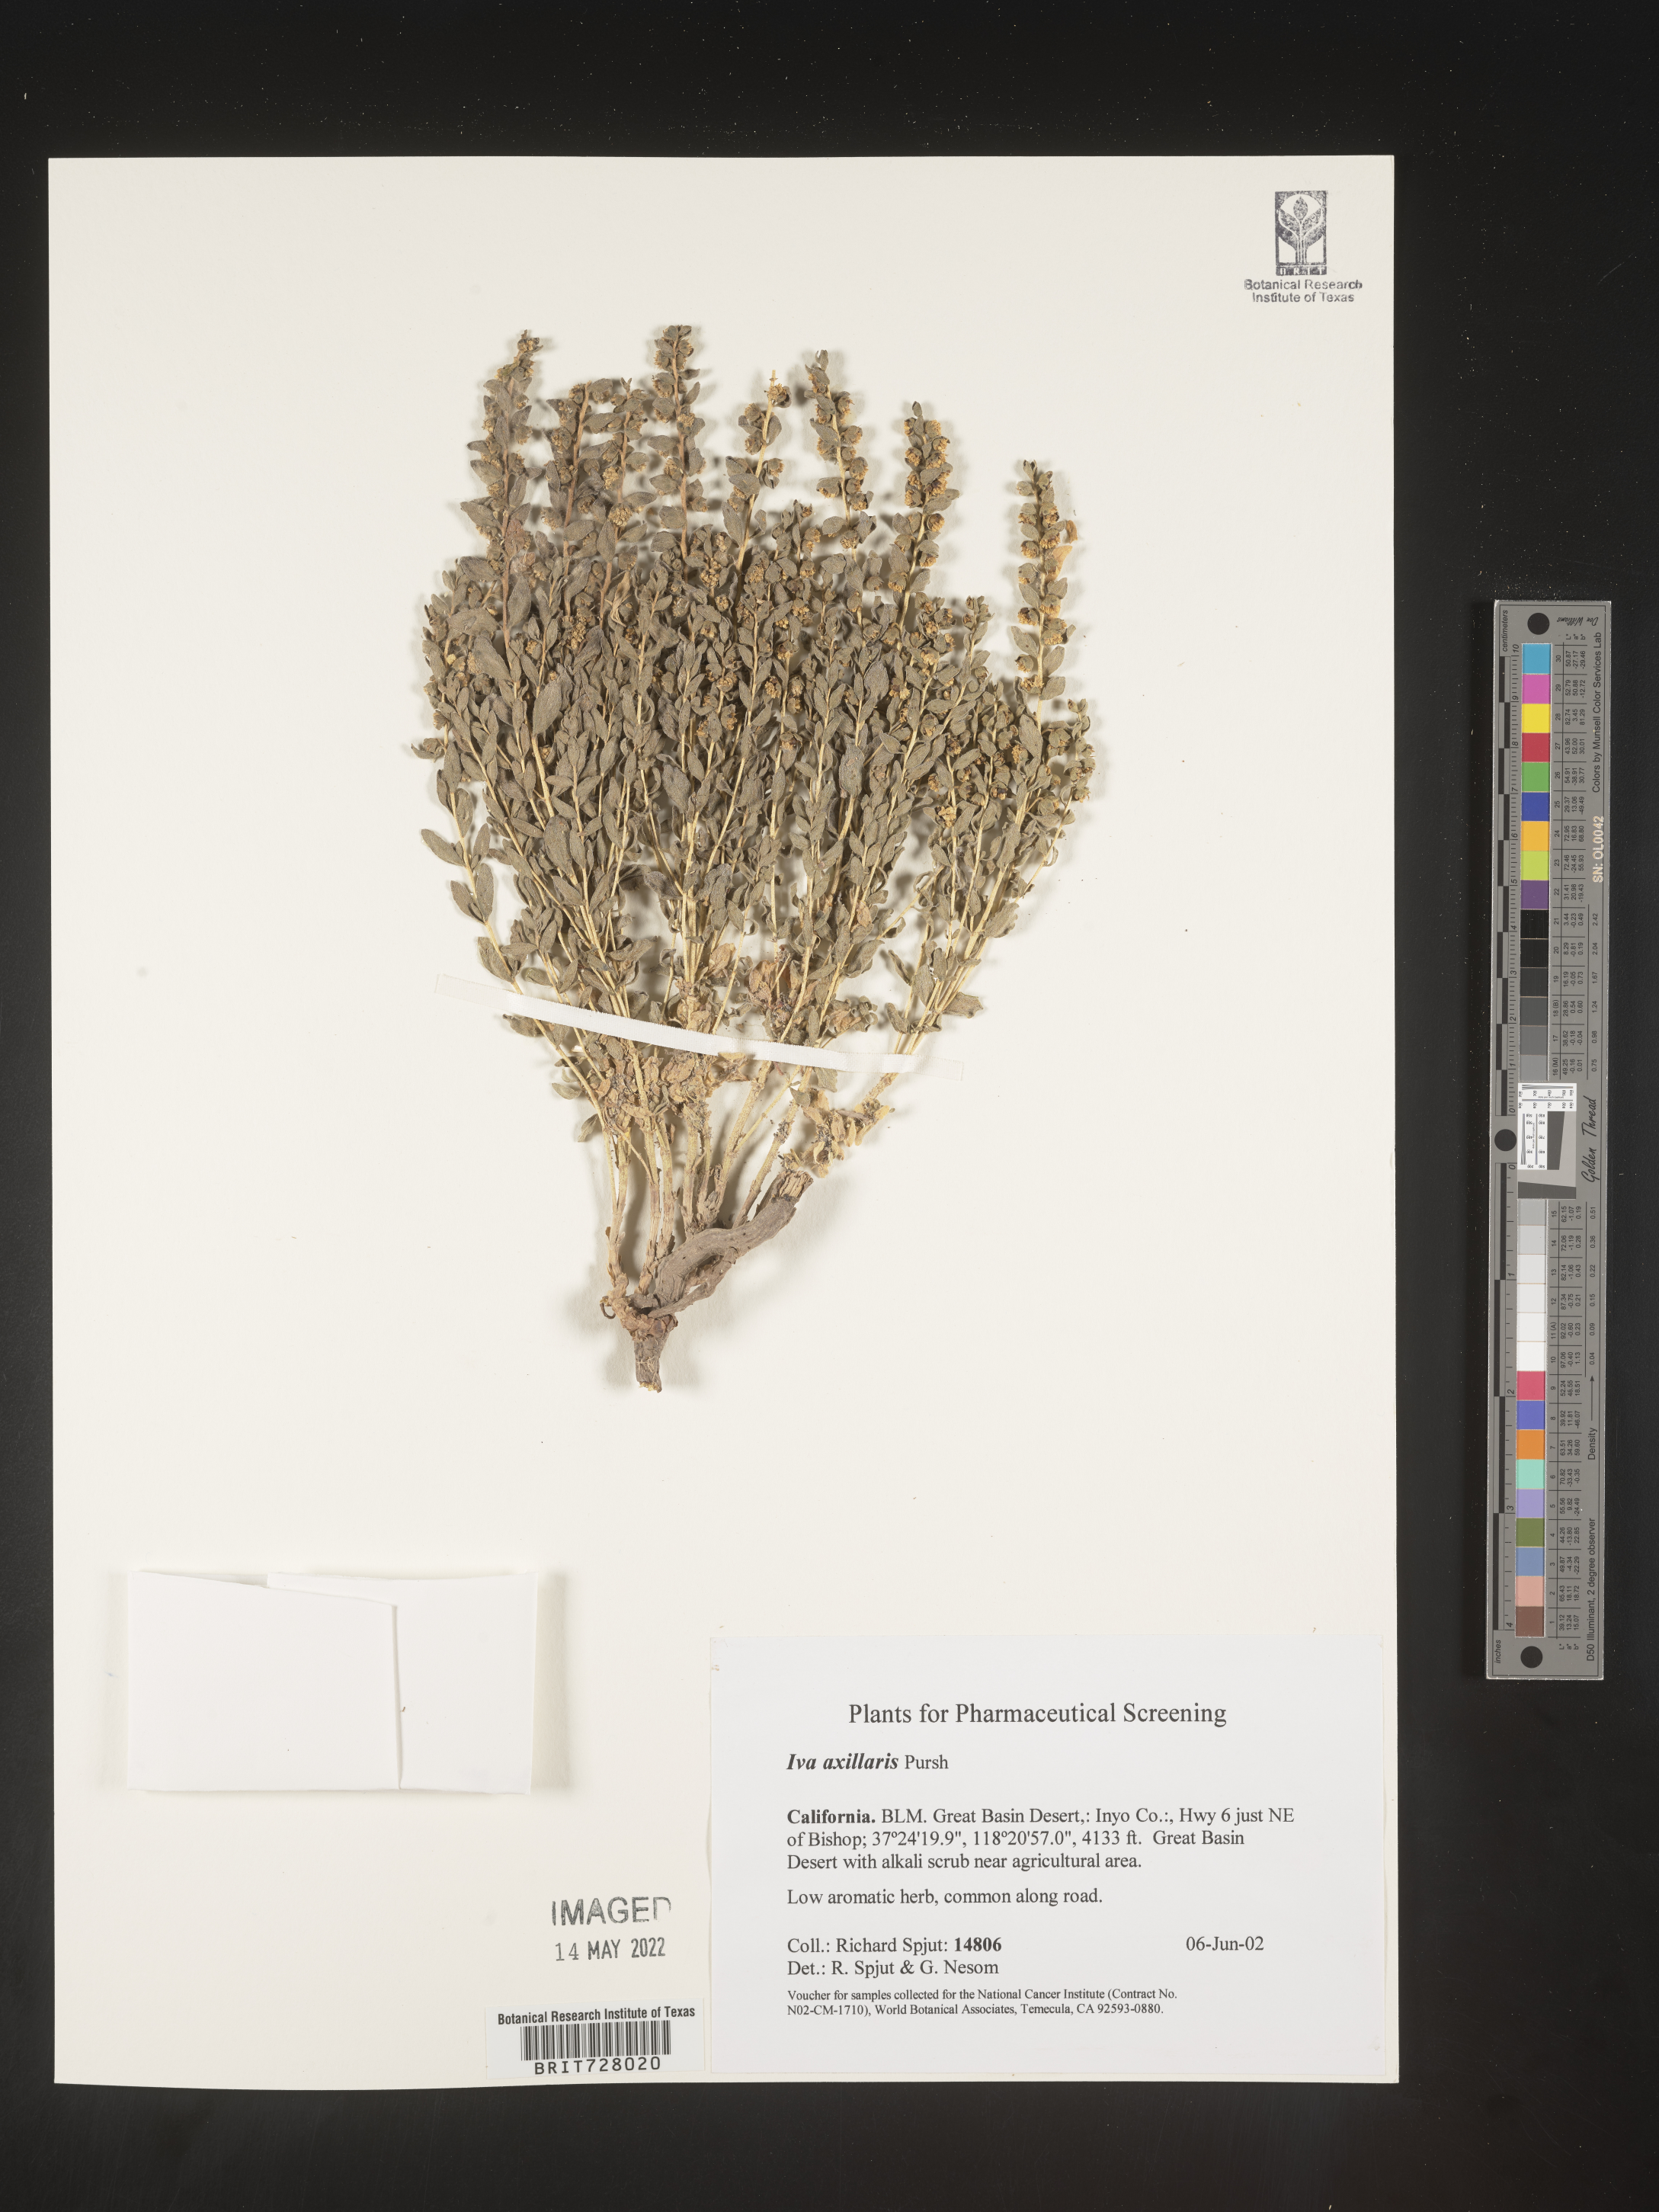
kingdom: Plantae
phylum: Tracheophyta
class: Magnoliopsida
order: Asterales
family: Asteraceae
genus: Iva
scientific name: Iva axillaris
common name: Poverty sumpweed
